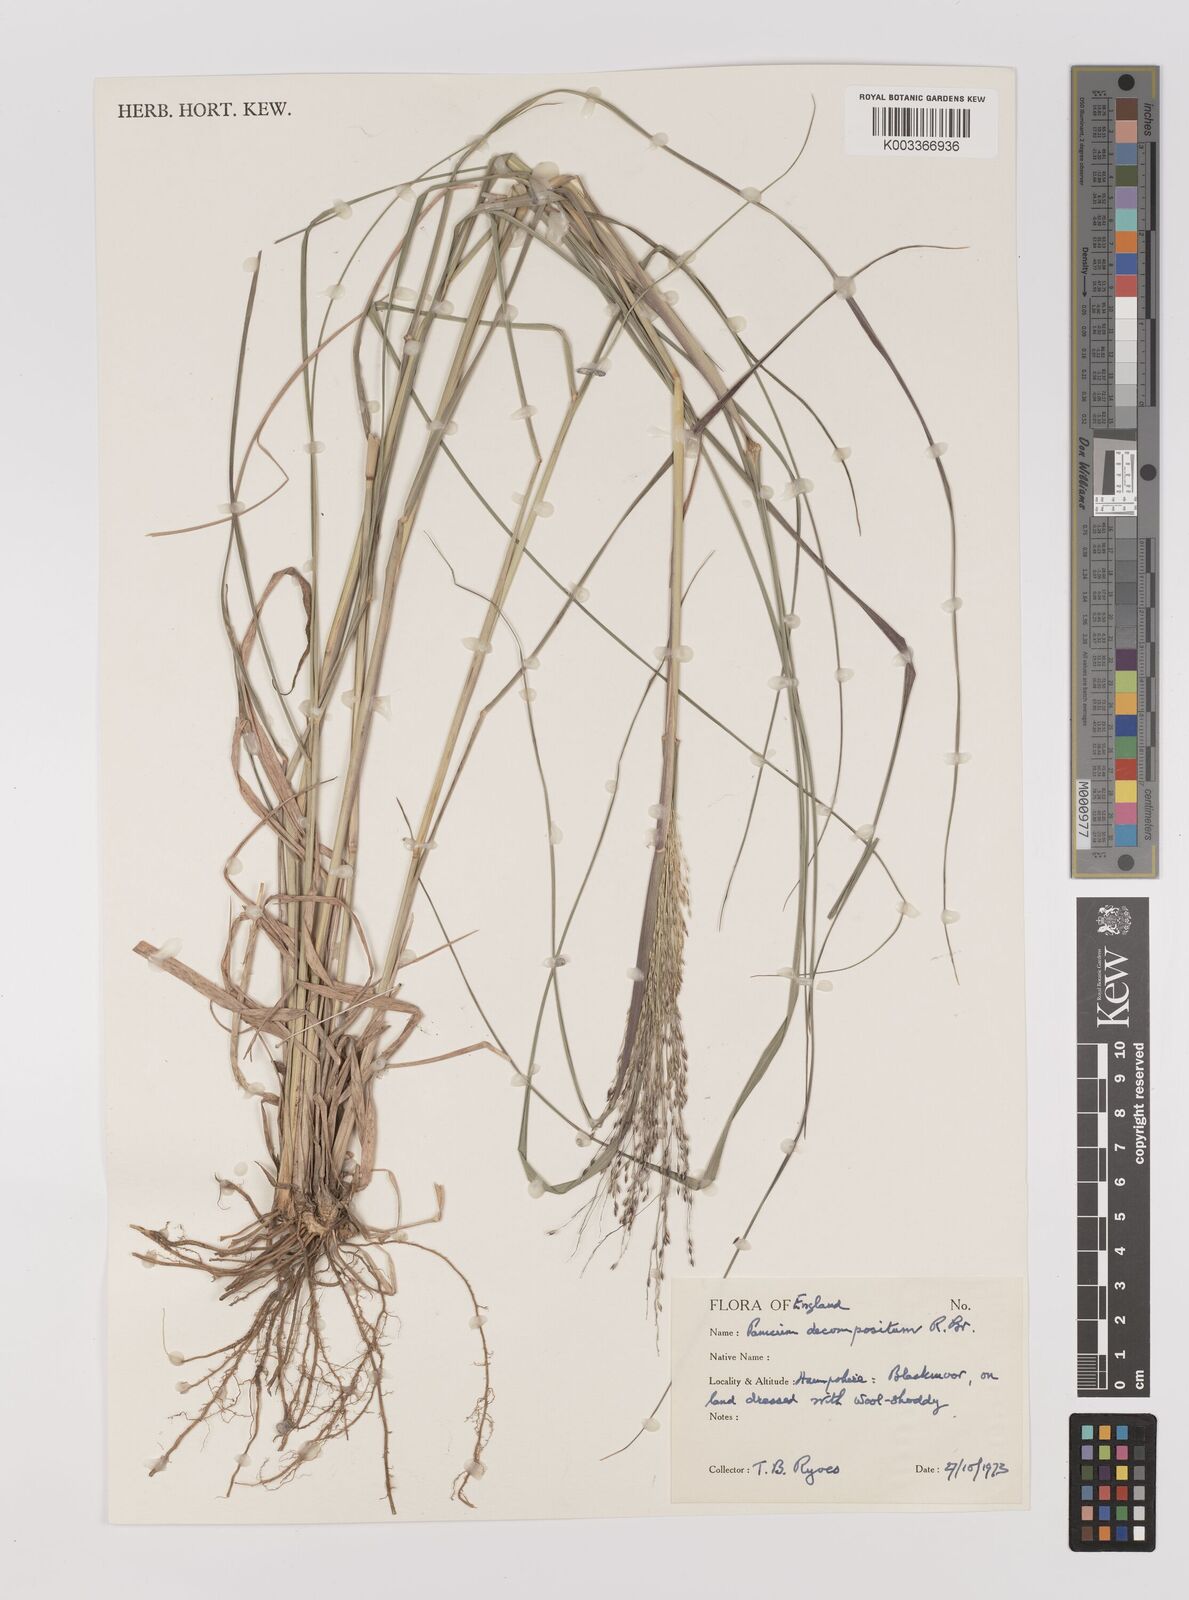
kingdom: Plantae
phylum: Tracheophyta
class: Liliopsida
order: Poales
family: Poaceae
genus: Panicum
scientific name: Panicum decompositum
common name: Australian millet
